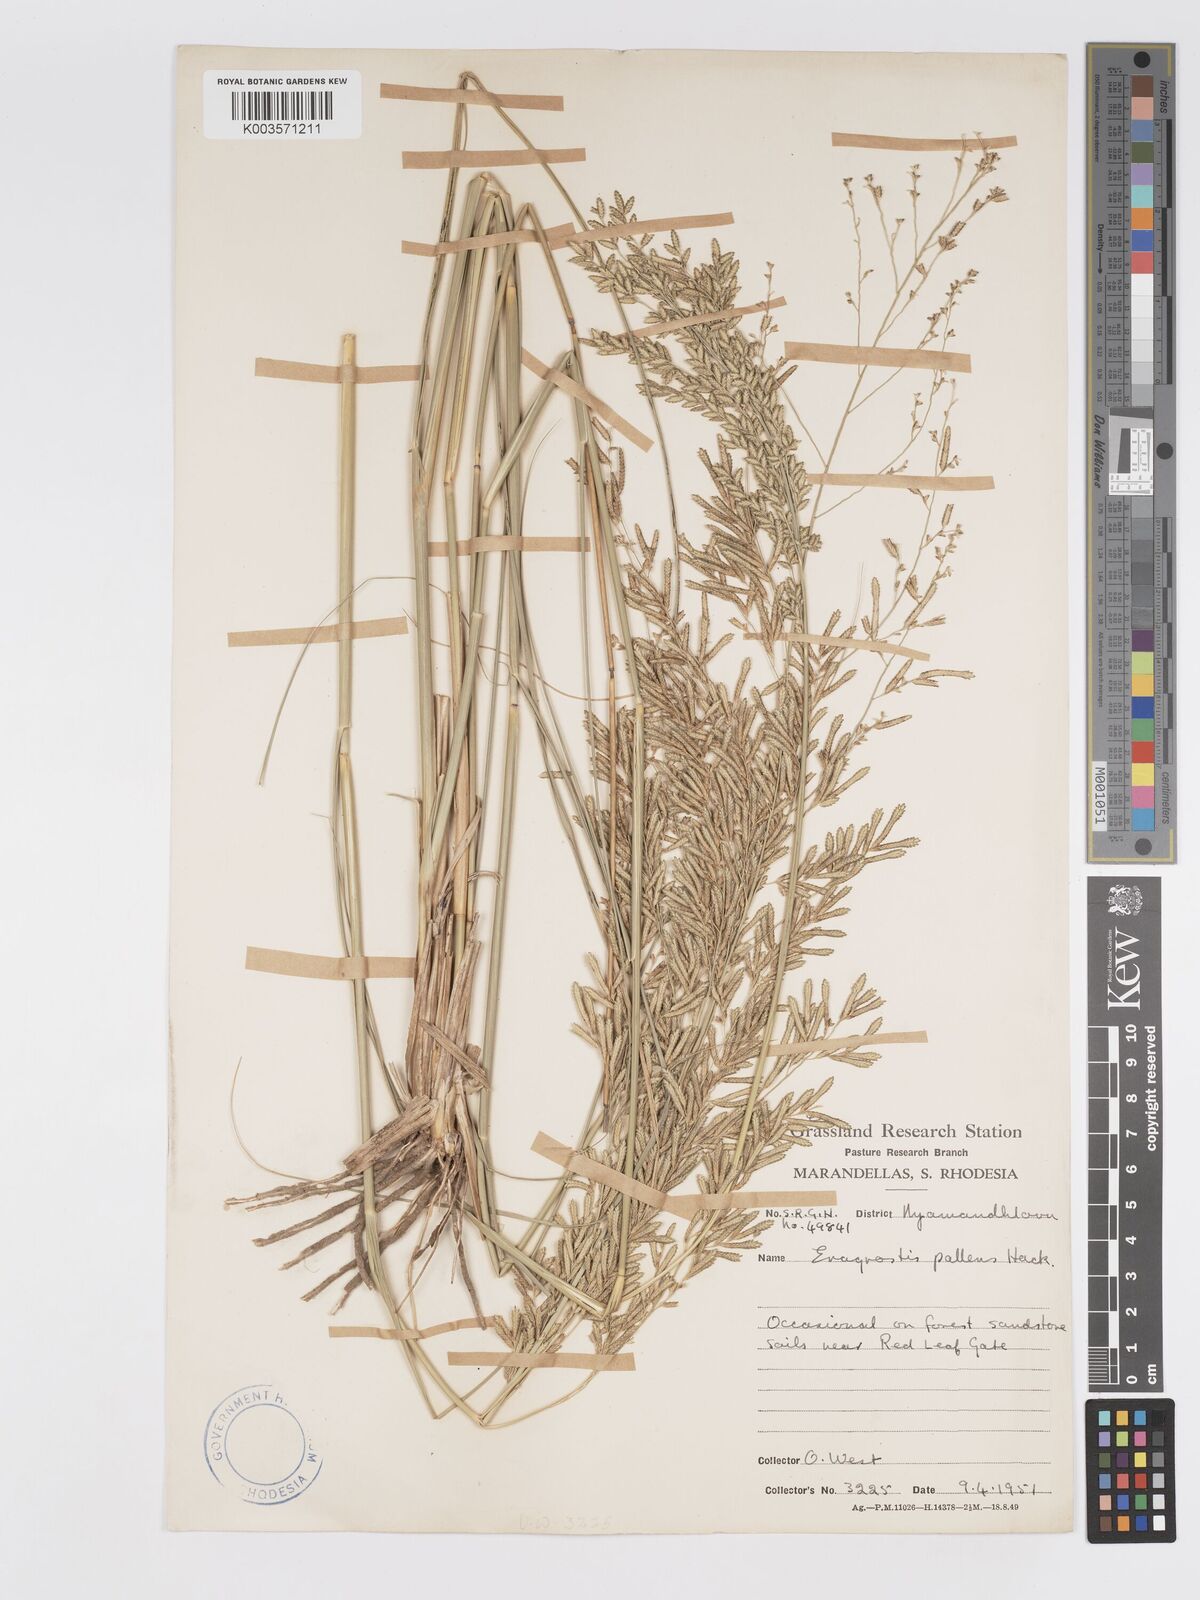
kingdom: Plantae
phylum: Tracheophyta
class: Liliopsida
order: Poales
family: Poaceae
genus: Eragrostis
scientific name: Eragrostis pallens
